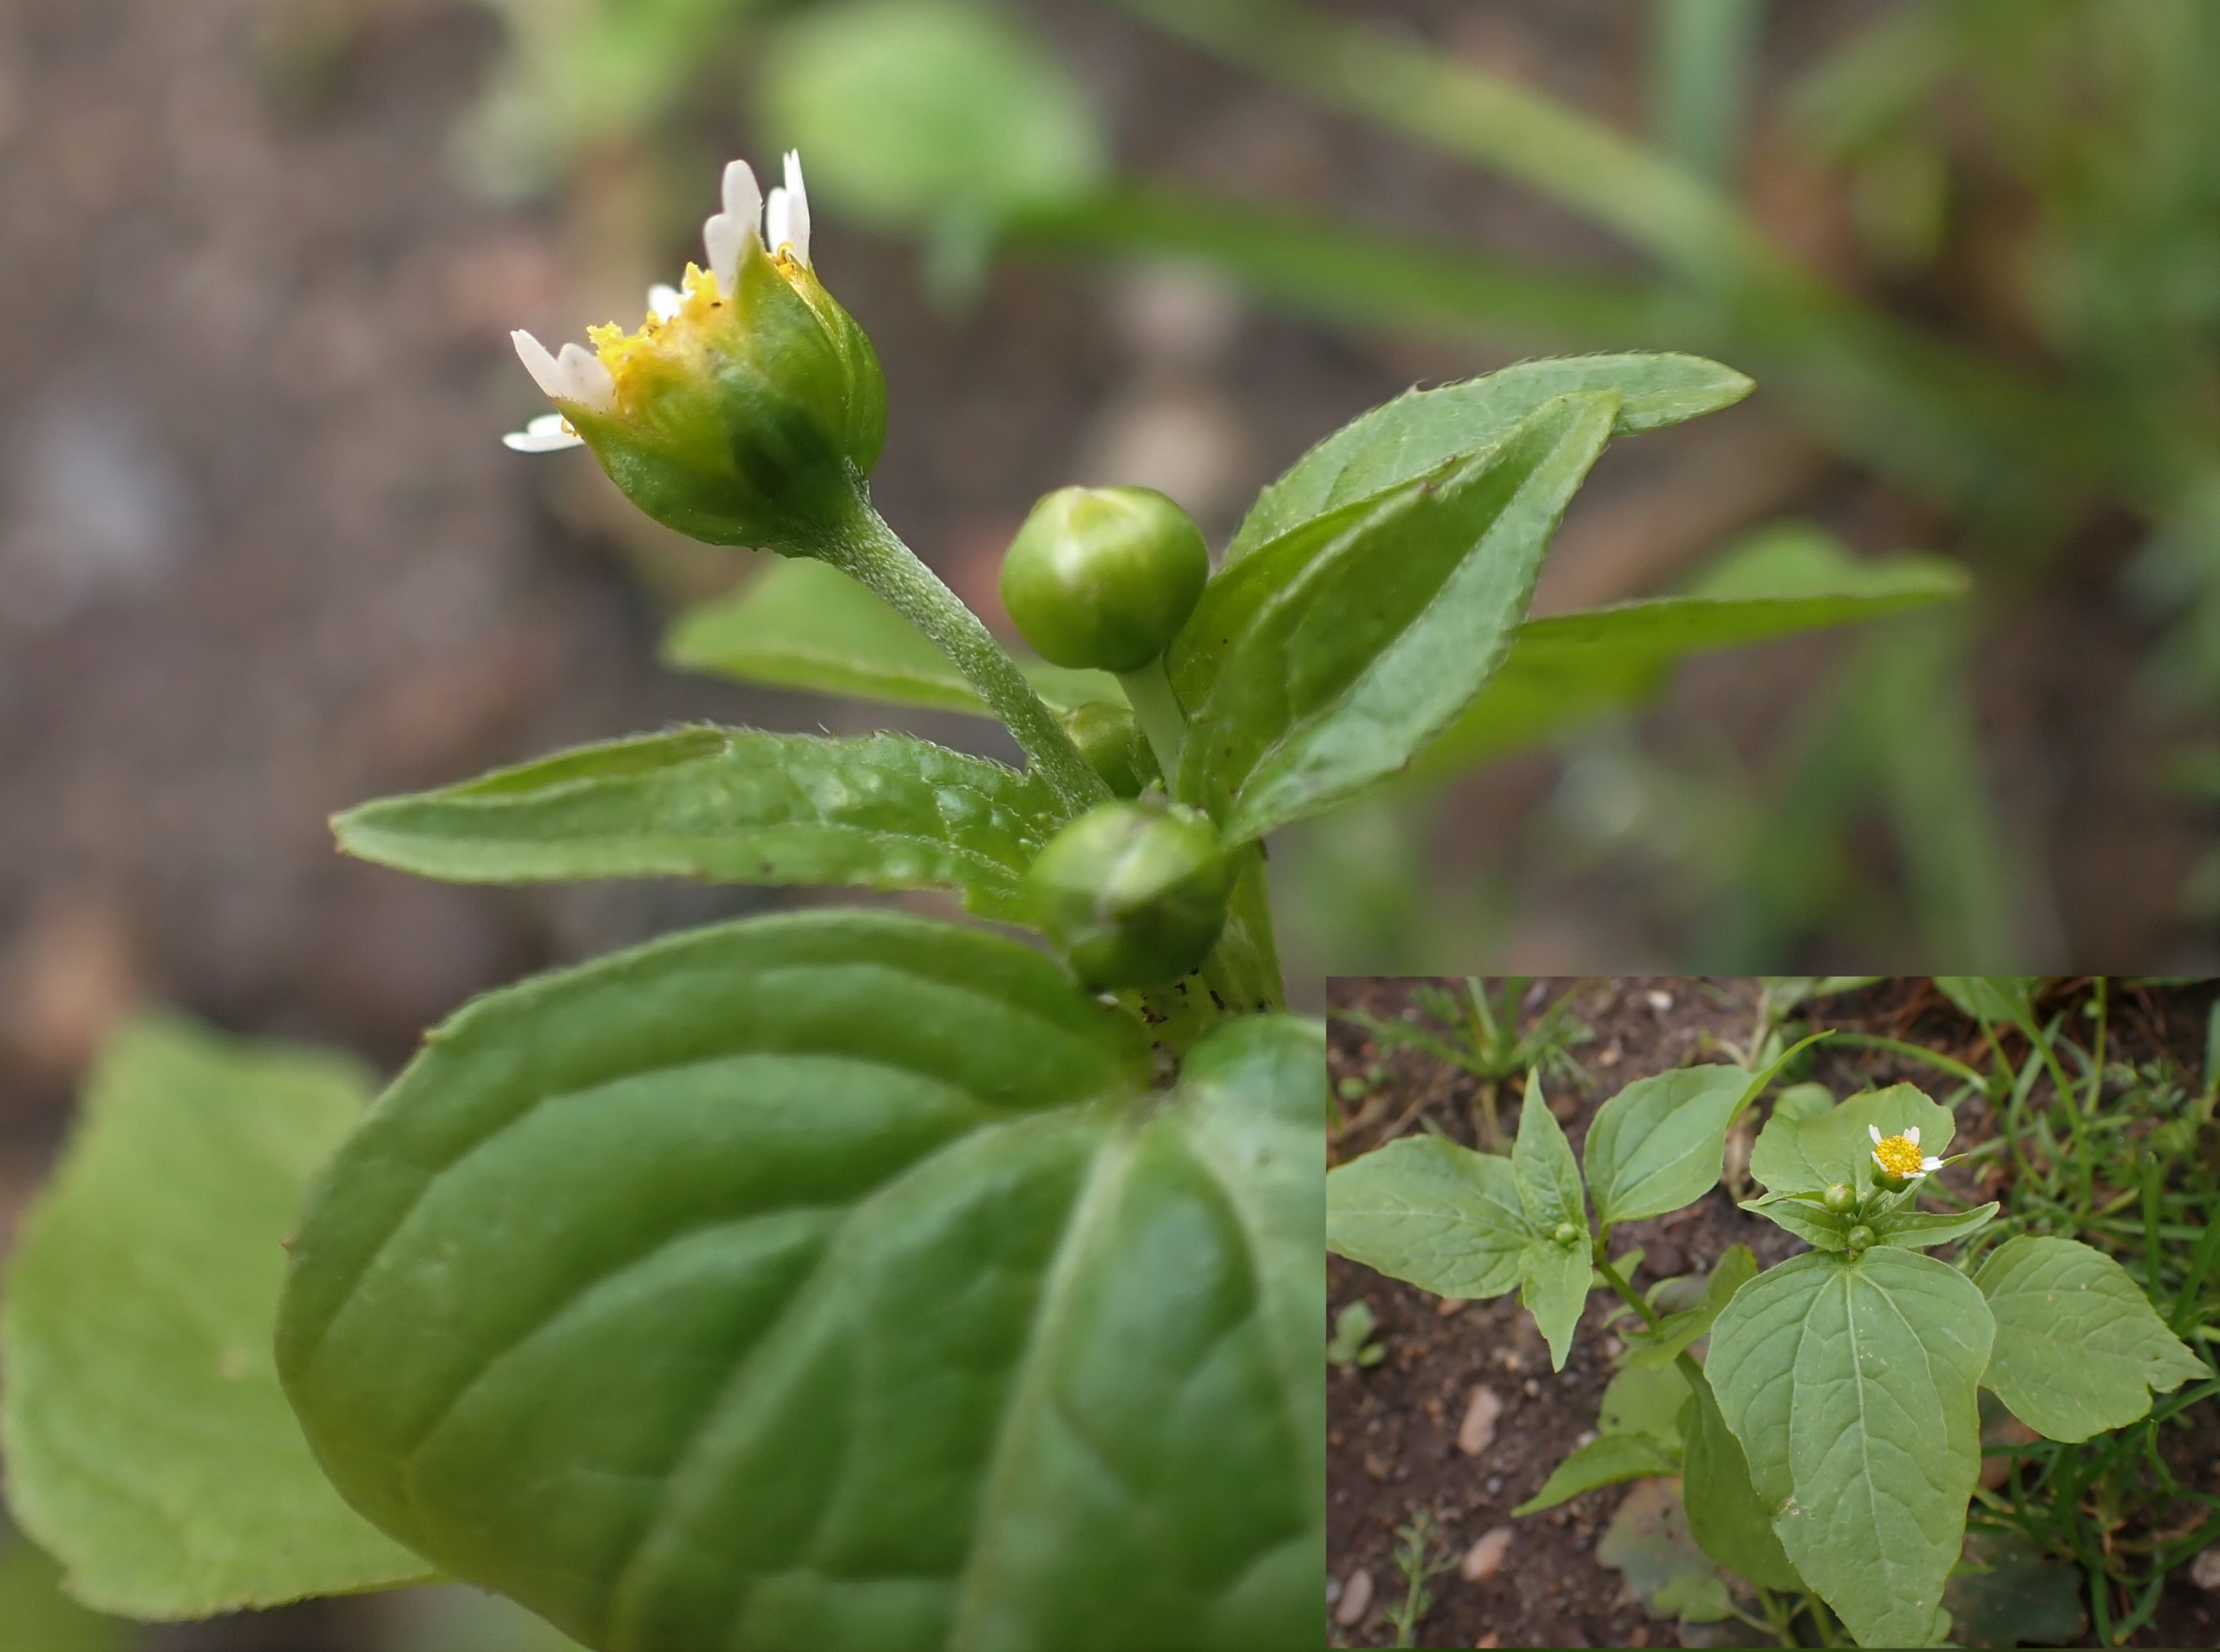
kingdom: Plantae
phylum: Tracheophyta
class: Magnoliopsida
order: Asterales
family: Asteraceae
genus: Galinsoga
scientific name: Galinsoga parviflora
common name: Håret kortstråle
